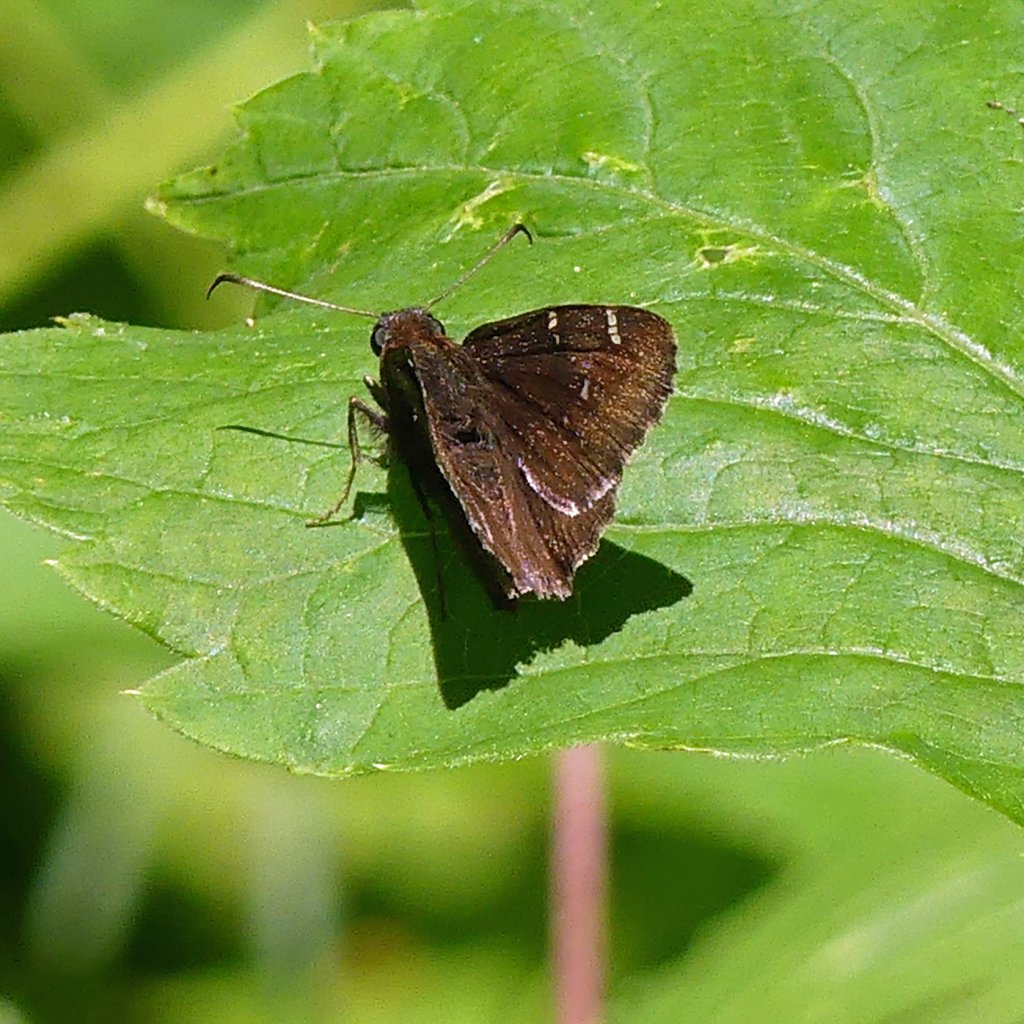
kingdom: Animalia
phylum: Arthropoda
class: Insecta
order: Lepidoptera
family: Hesperiidae
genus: Autochton
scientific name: Autochton
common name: Northern Cloudywing
